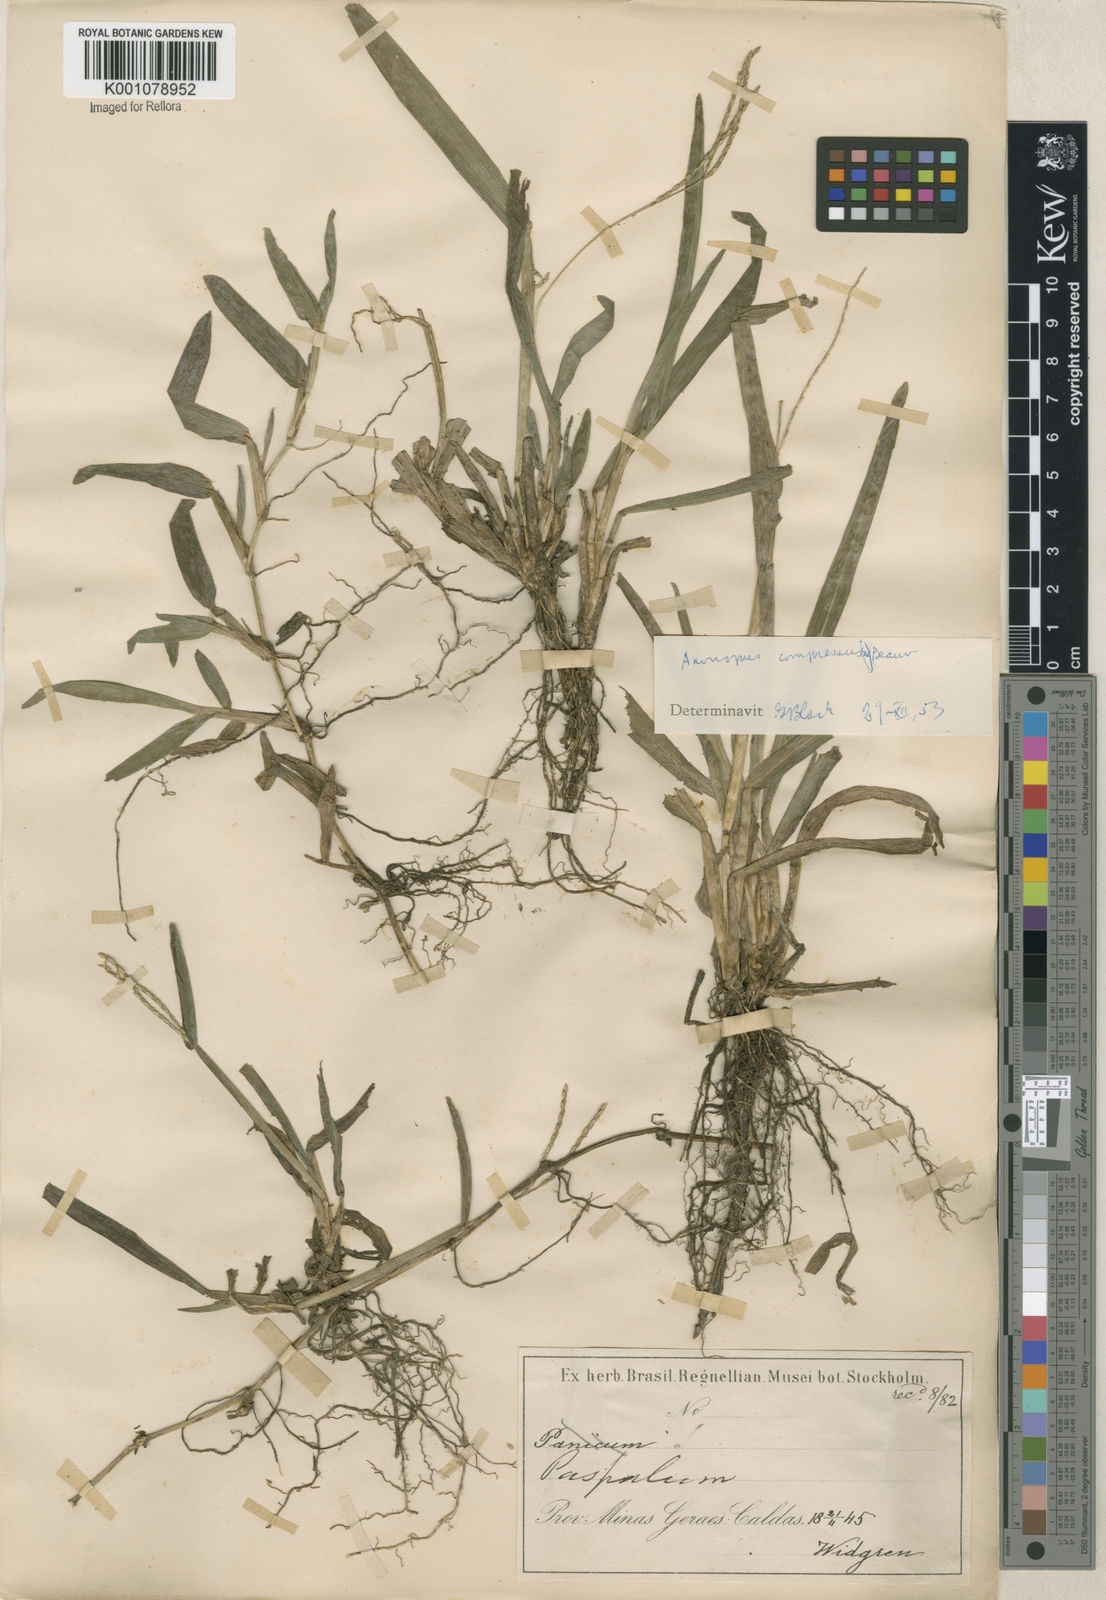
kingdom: Plantae
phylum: Tracheophyta
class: Liliopsida
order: Poales
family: Poaceae
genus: Axonopus
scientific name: Axonopus compressus
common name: American carpet grass
